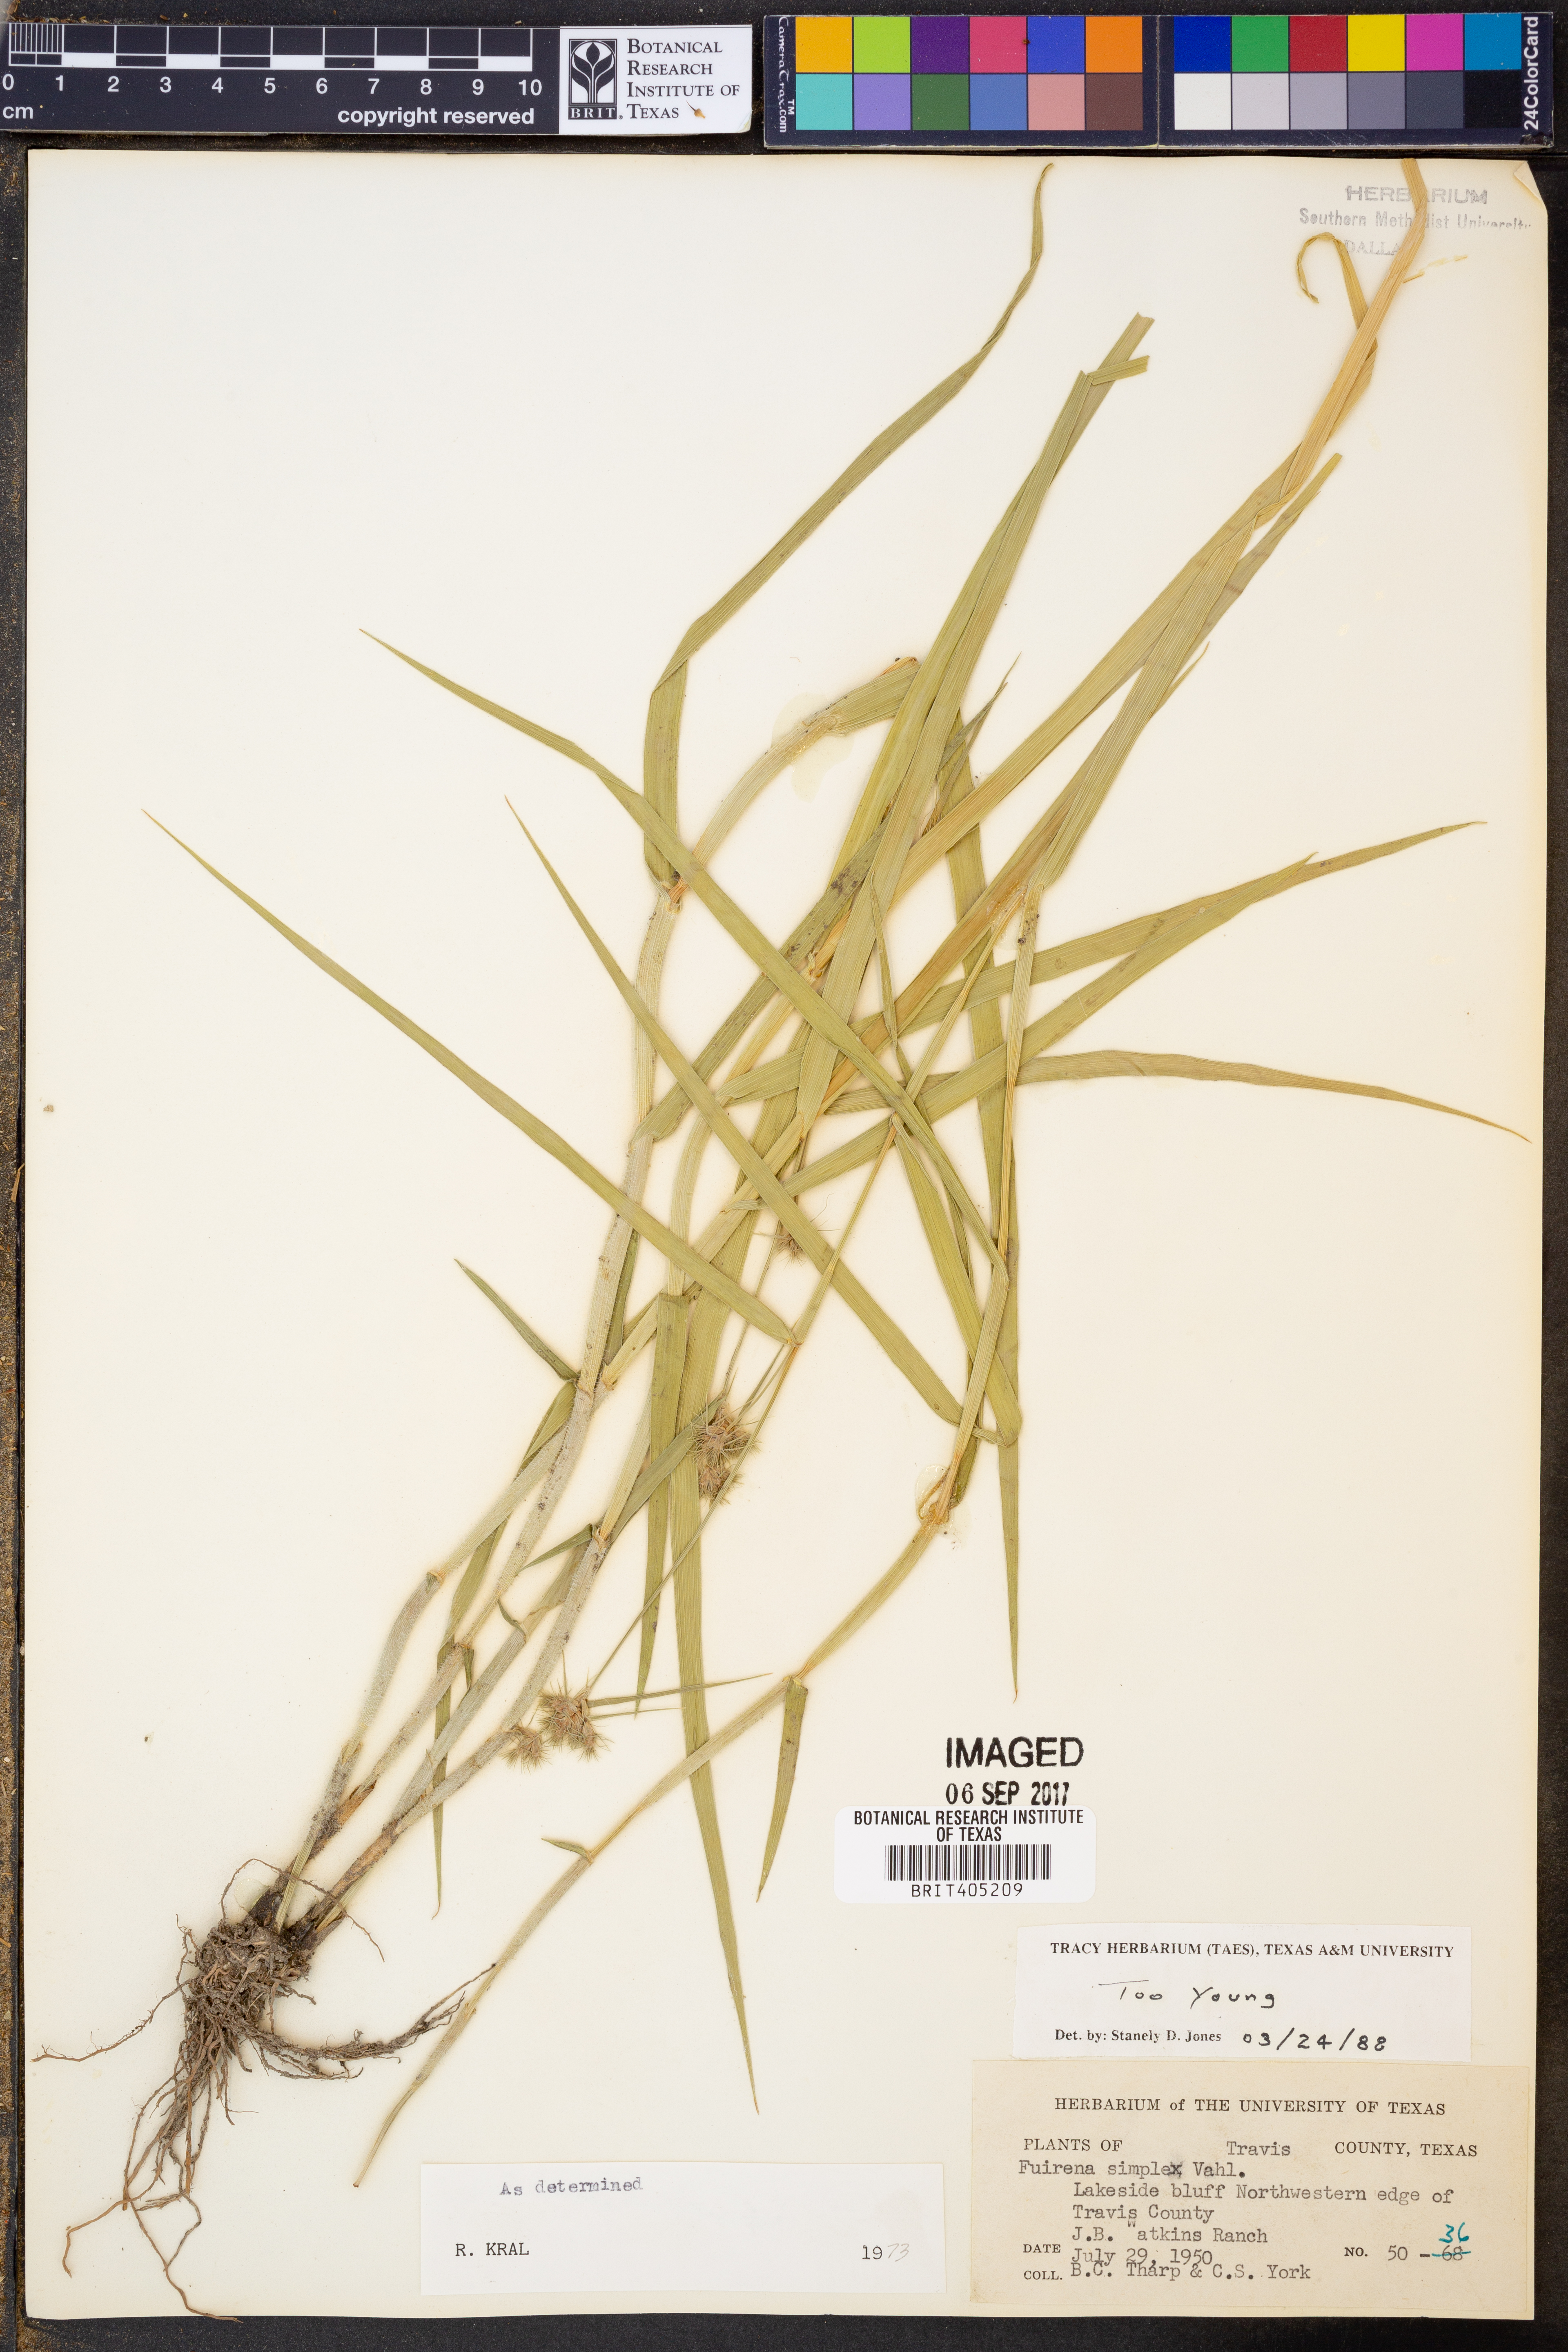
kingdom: Plantae
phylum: Tracheophyta
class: Liliopsida
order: Poales
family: Cyperaceae
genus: Fuirena
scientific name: Fuirena simplex
